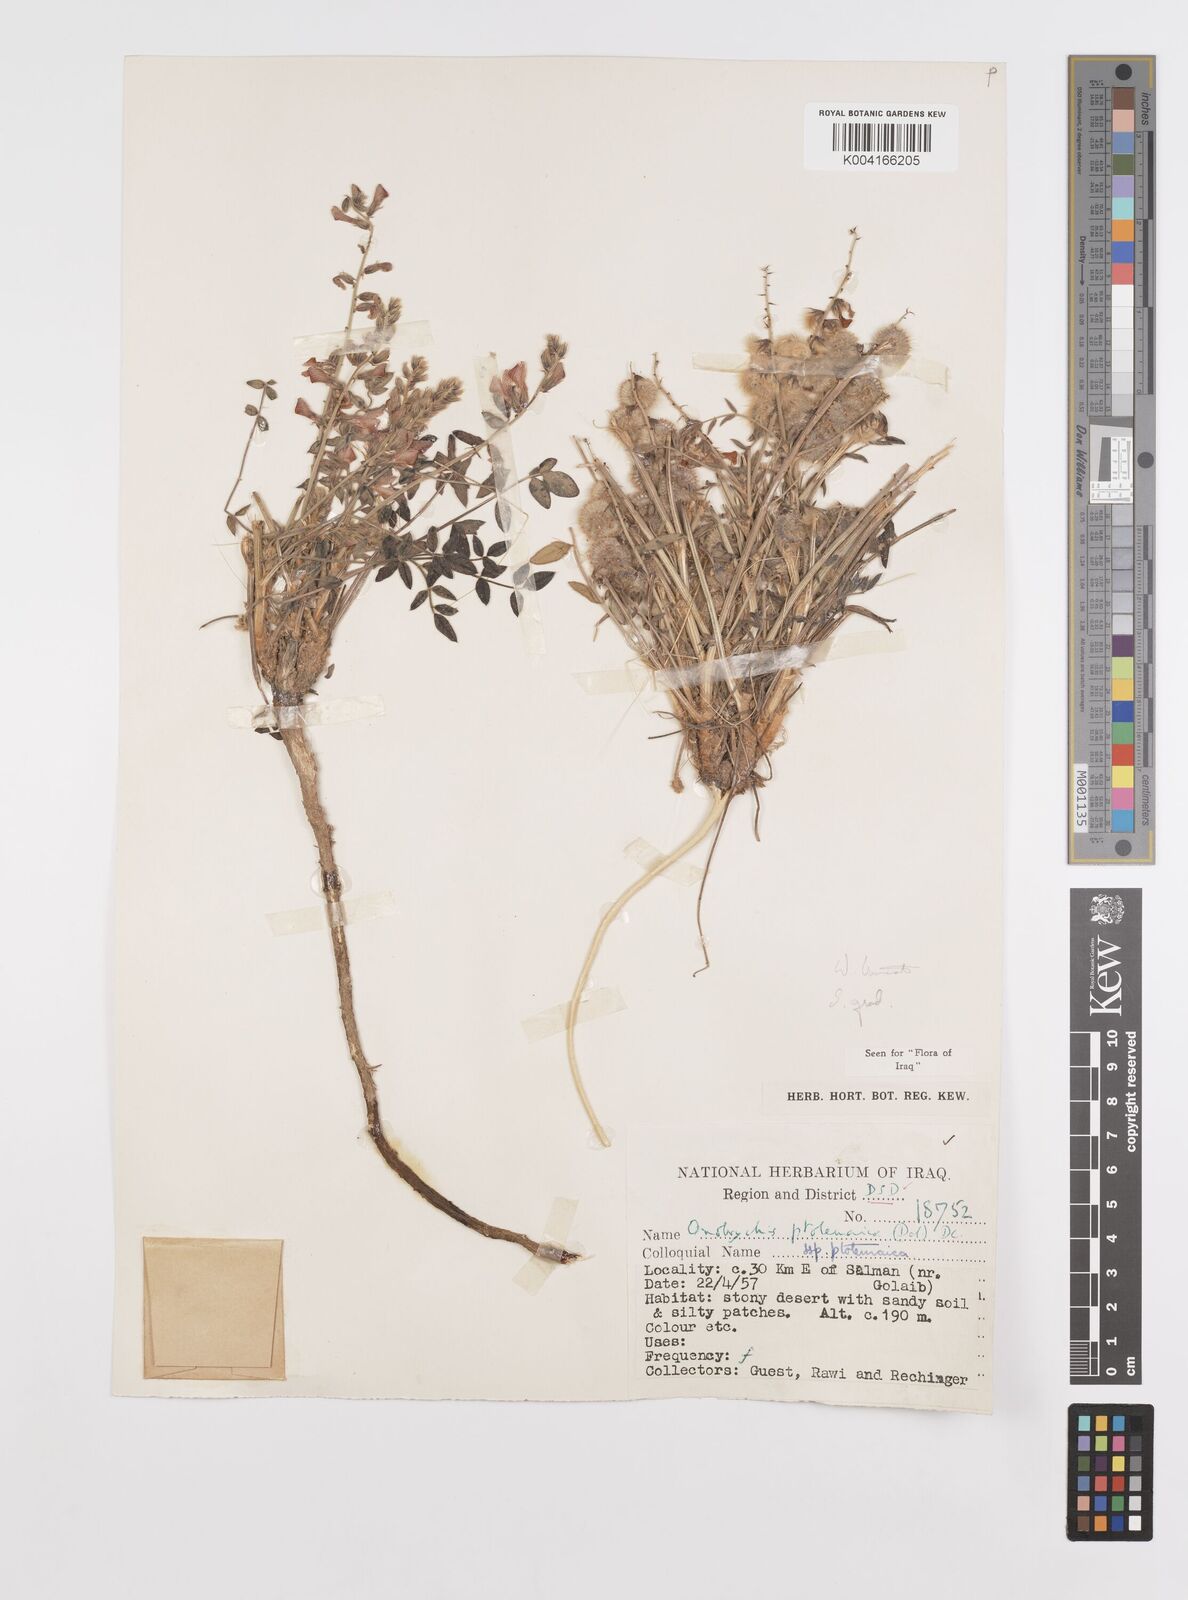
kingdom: Plantae
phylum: Tracheophyta
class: Magnoliopsida
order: Fabales
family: Fabaceae
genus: Onobrychis
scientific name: Onobrychis ptolemaica
